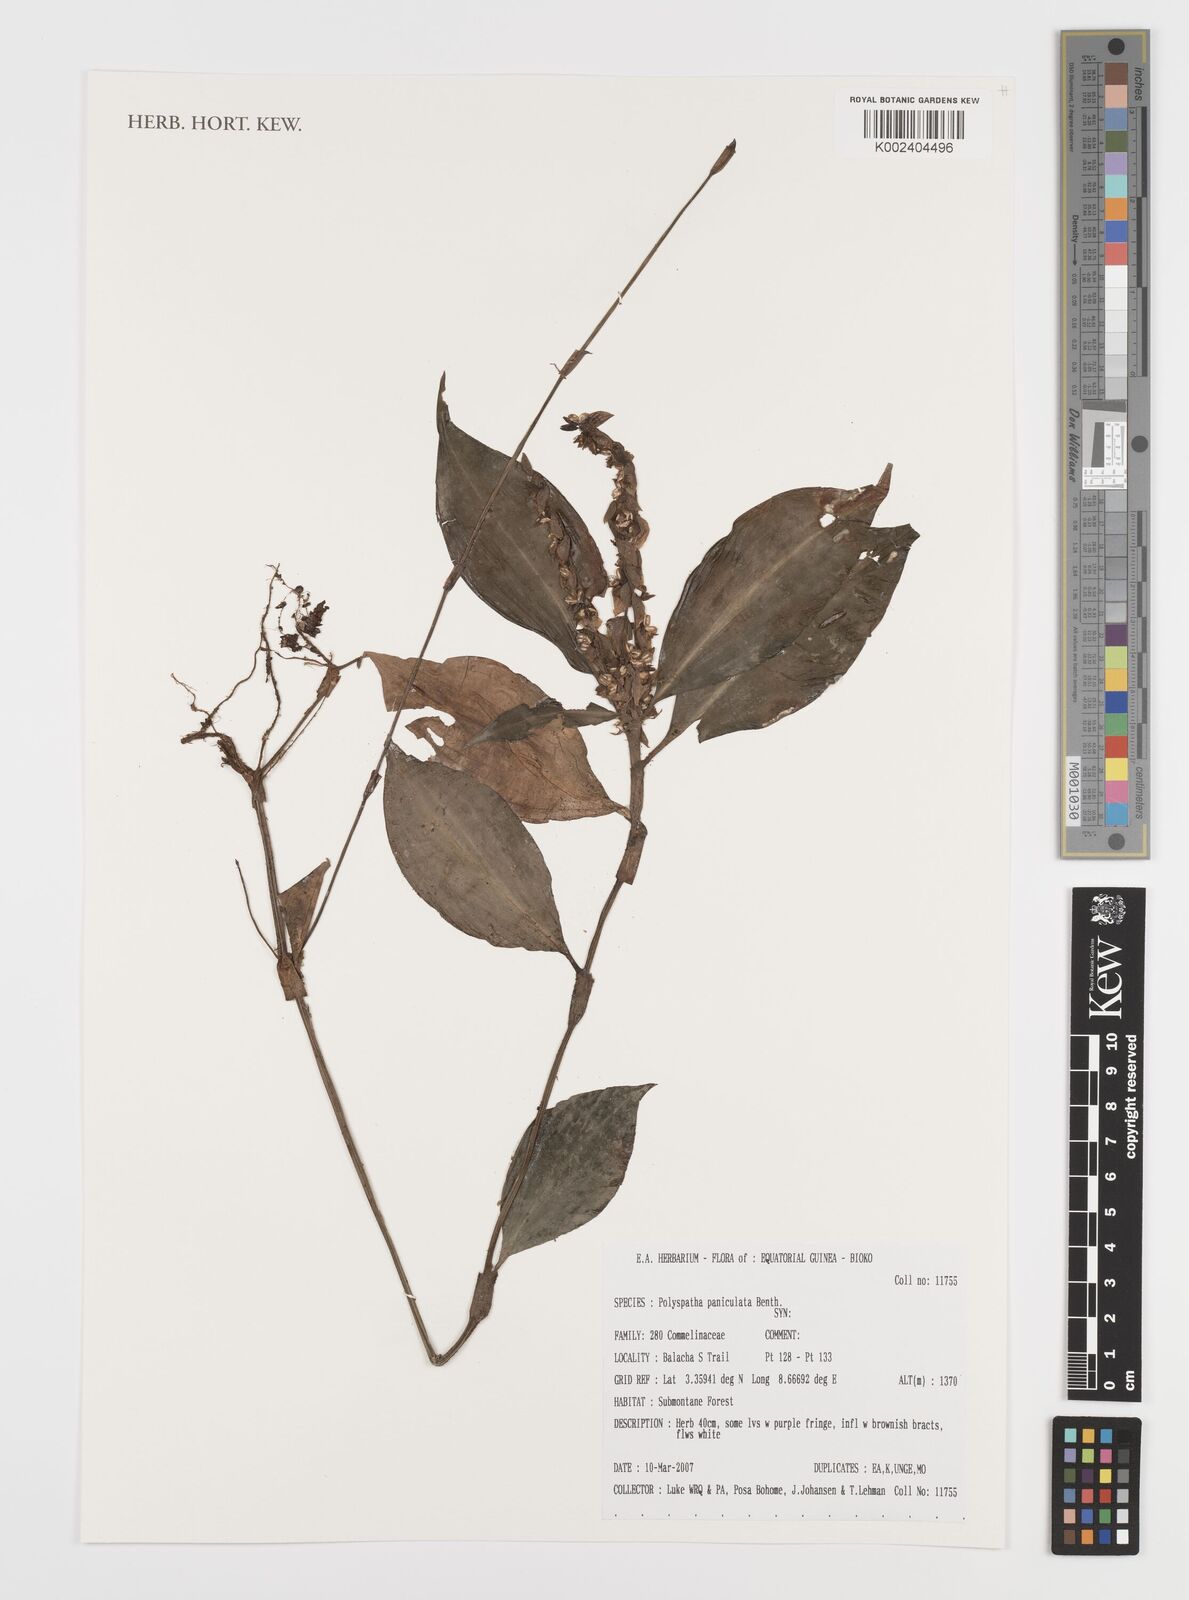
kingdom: Plantae
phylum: Tracheophyta
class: Liliopsida
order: Commelinales
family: Commelinaceae
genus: Polyspatha
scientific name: Polyspatha paniculata
